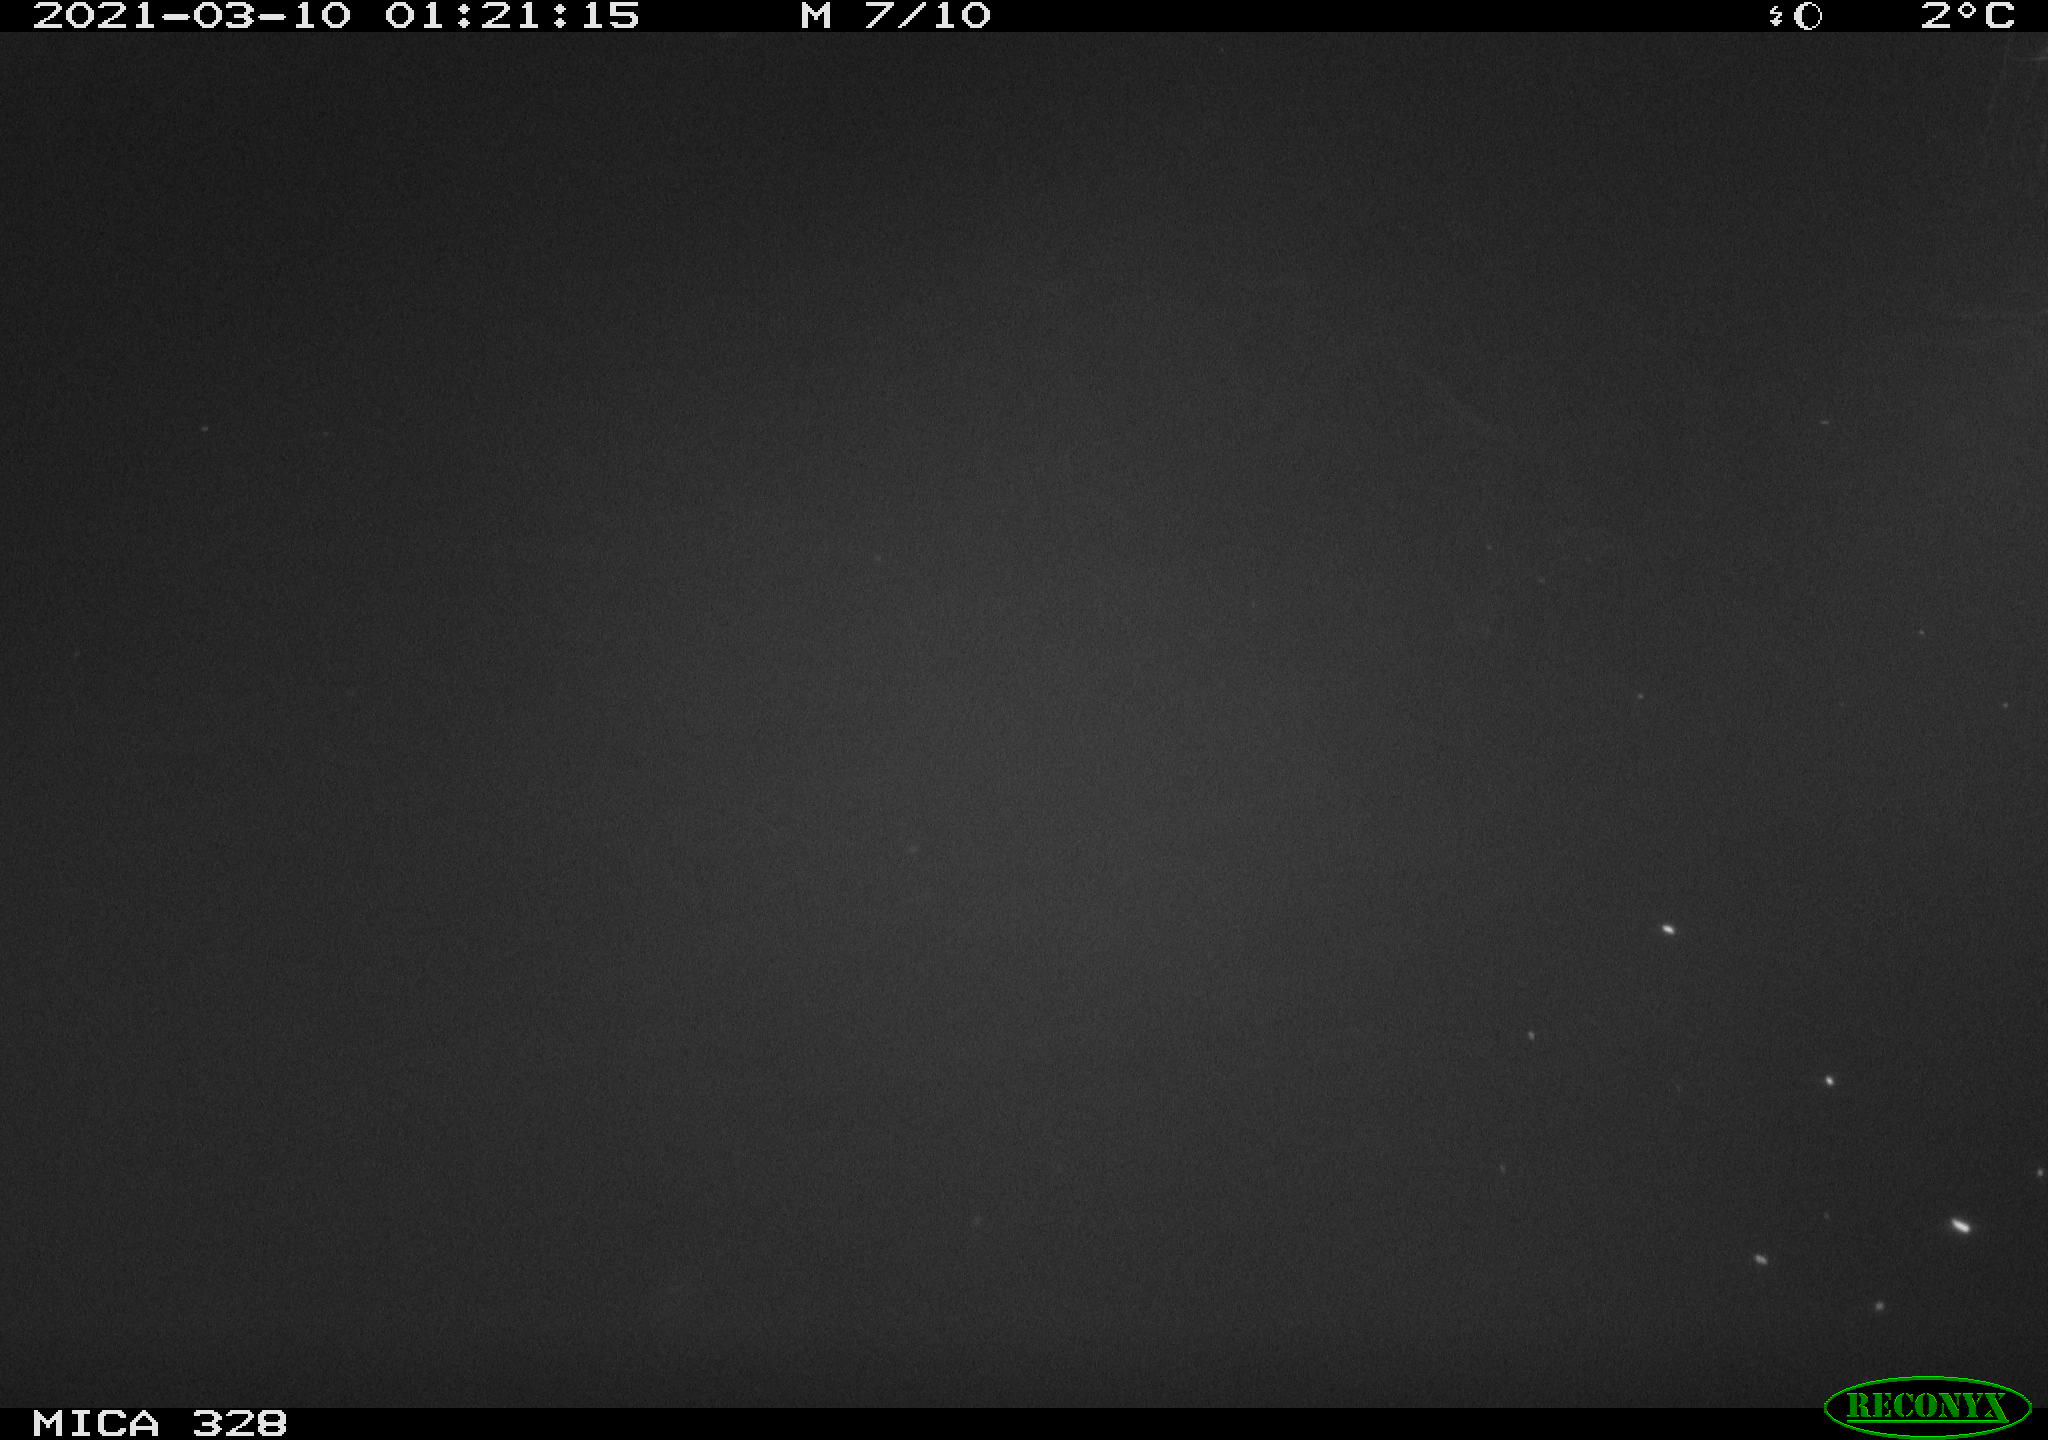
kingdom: Animalia
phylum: Chordata
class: Mammalia
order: Rodentia
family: Cricetidae
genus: Ondatra
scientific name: Ondatra zibethicus
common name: Muskrat
